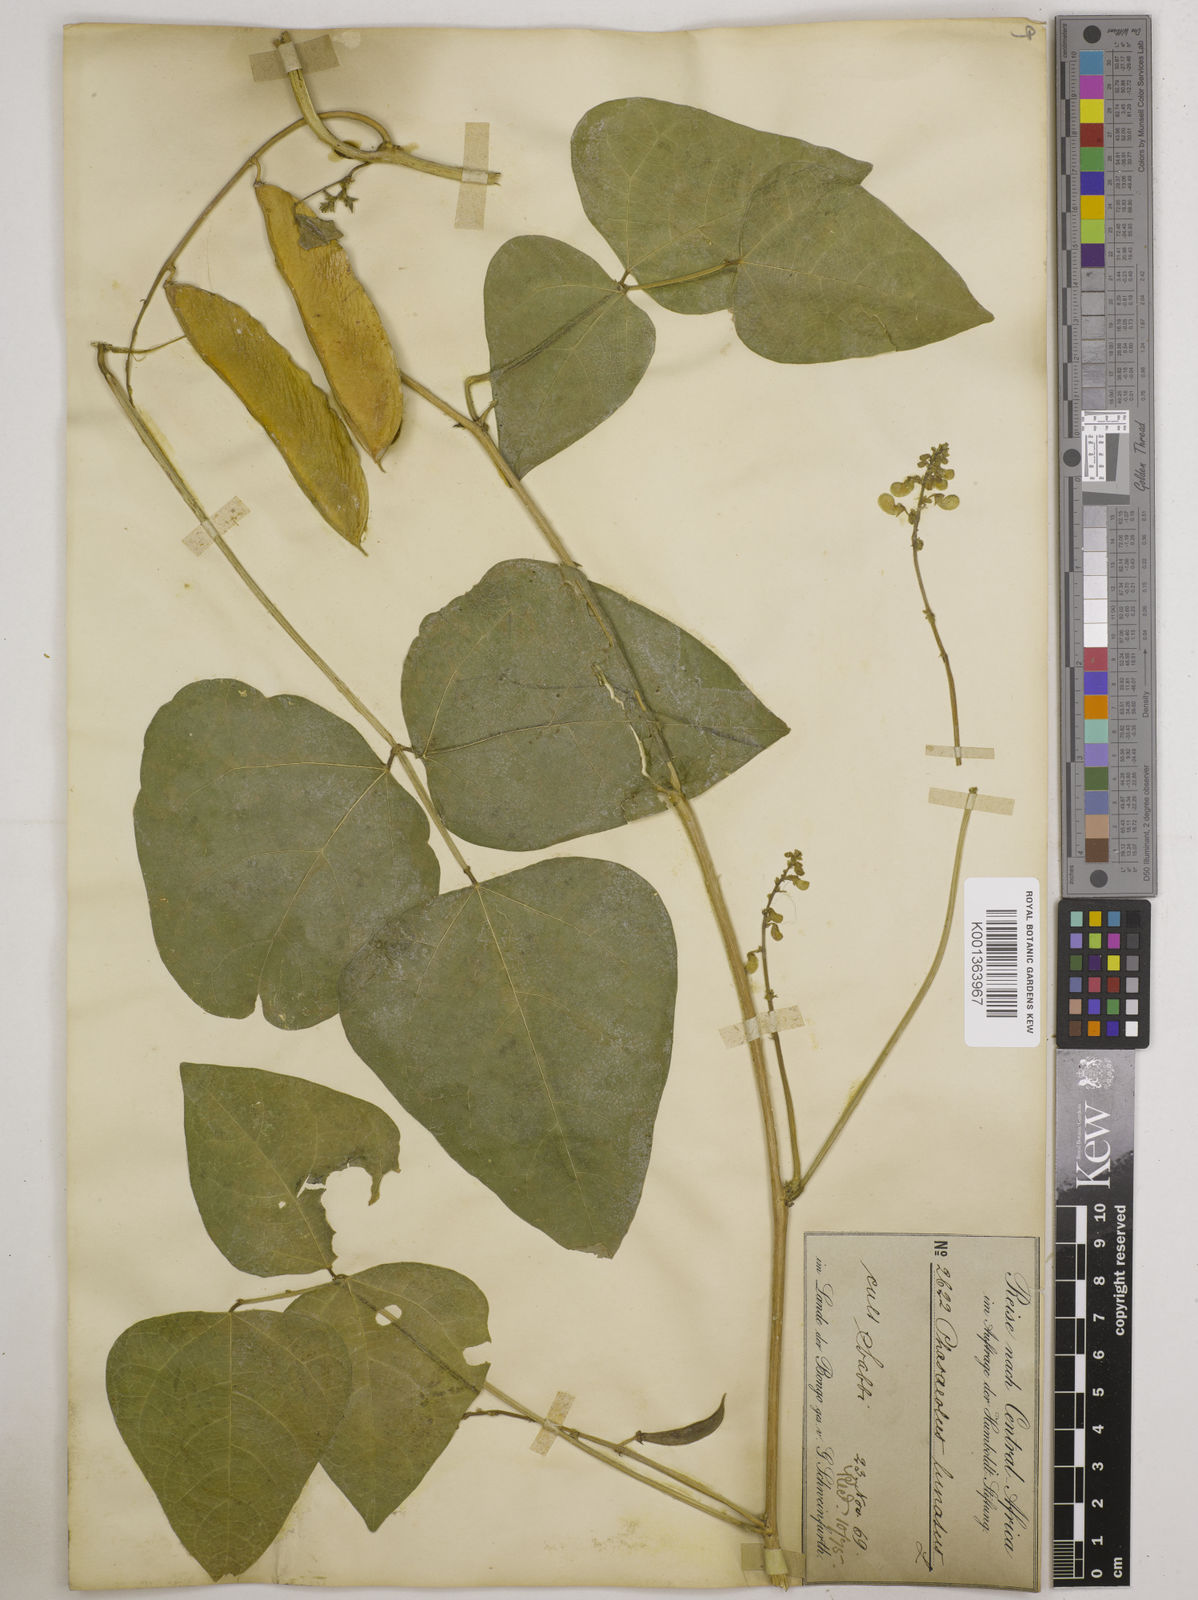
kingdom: Plantae
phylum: Tracheophyta
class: Magnoliopsida
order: Fabales
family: Fabaceae
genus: Phaseolus
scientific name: Phaseolus lunatus
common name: Sieva bean
